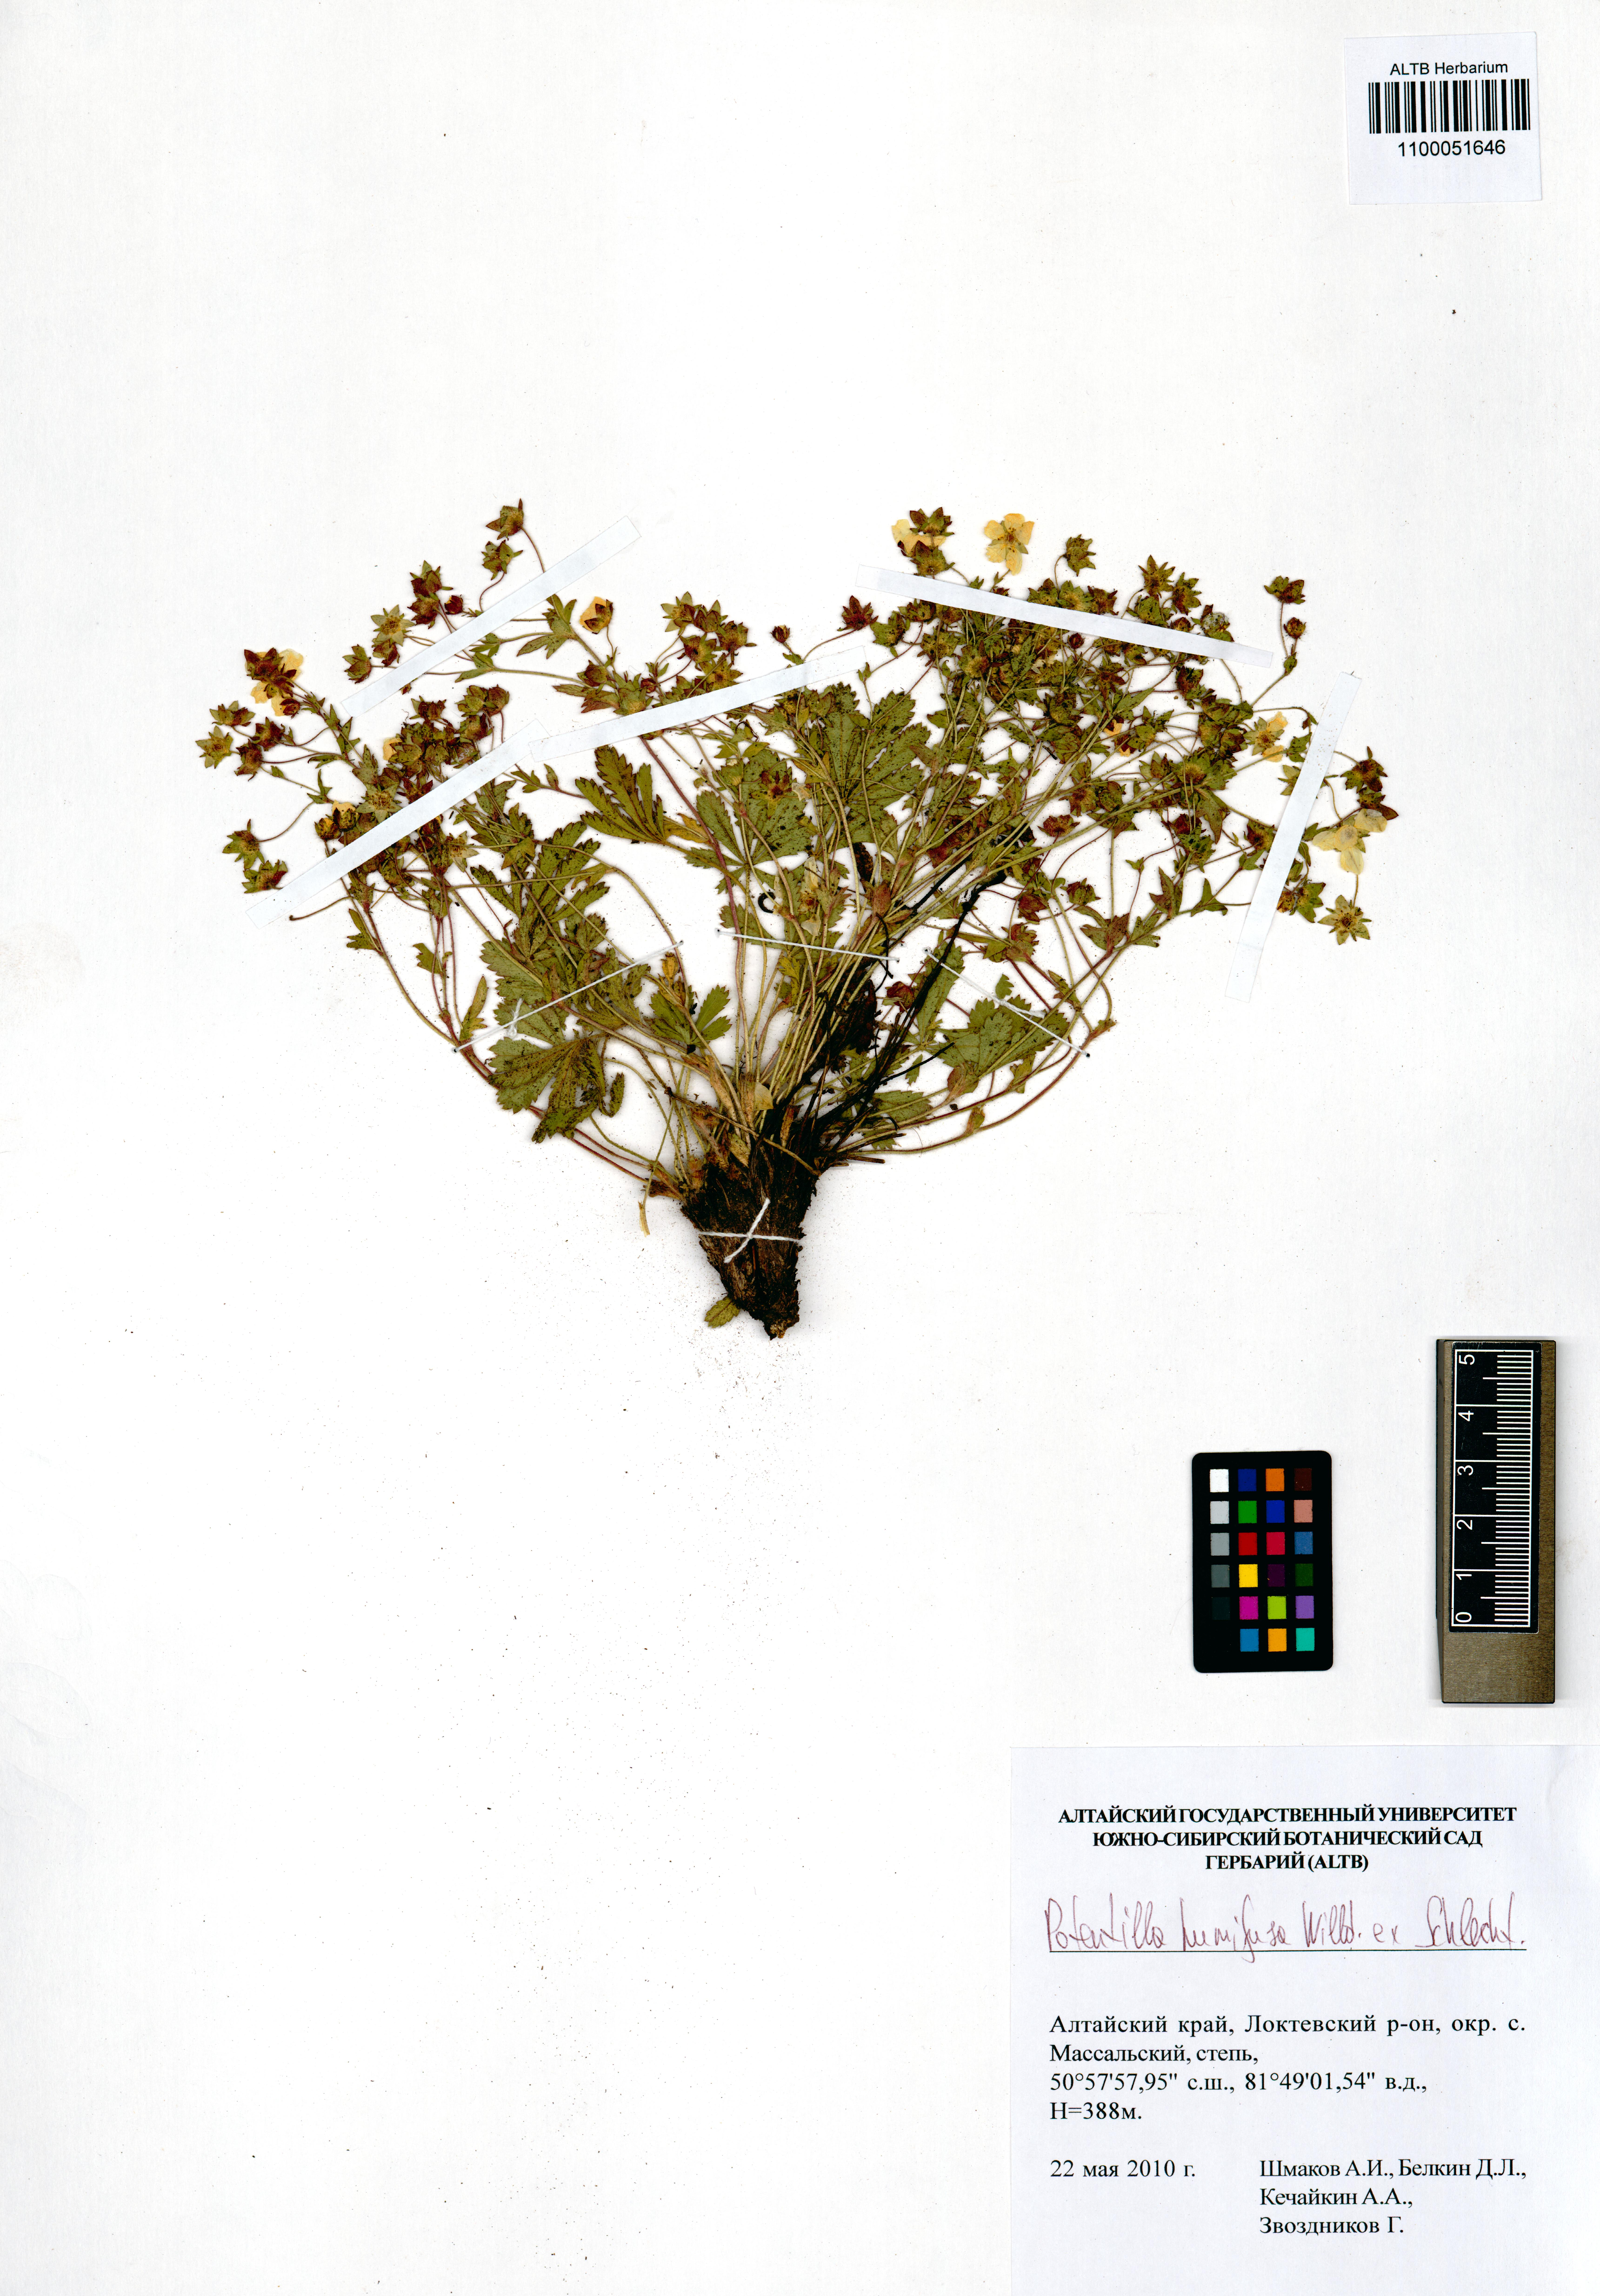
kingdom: Plantae
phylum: Tracheophyta
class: Magnoliopsida
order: Rosales
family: Rosaceae
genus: Potentilla
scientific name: Potentilla humifusa
